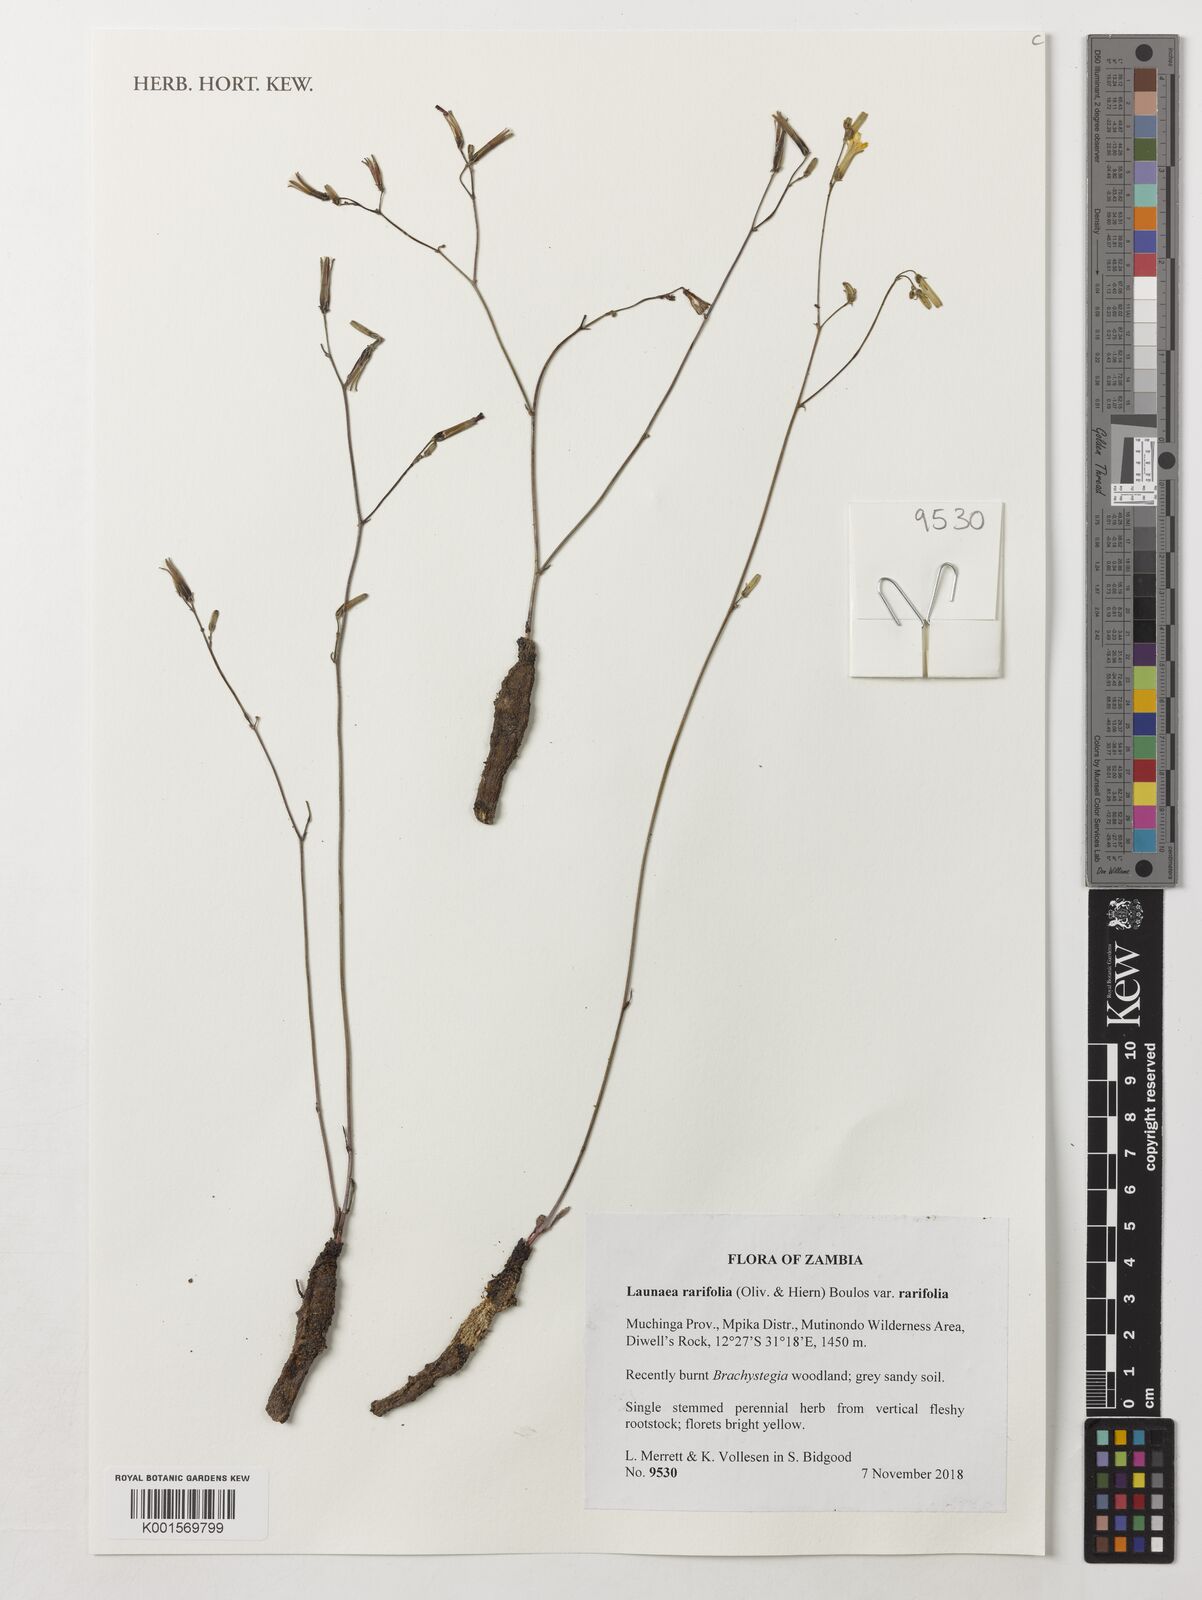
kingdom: Plantae
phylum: Tracheophyta
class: Magnoliopsida
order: Asterales
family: Asteraceae
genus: Launaea
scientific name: Launaea rarifolia
